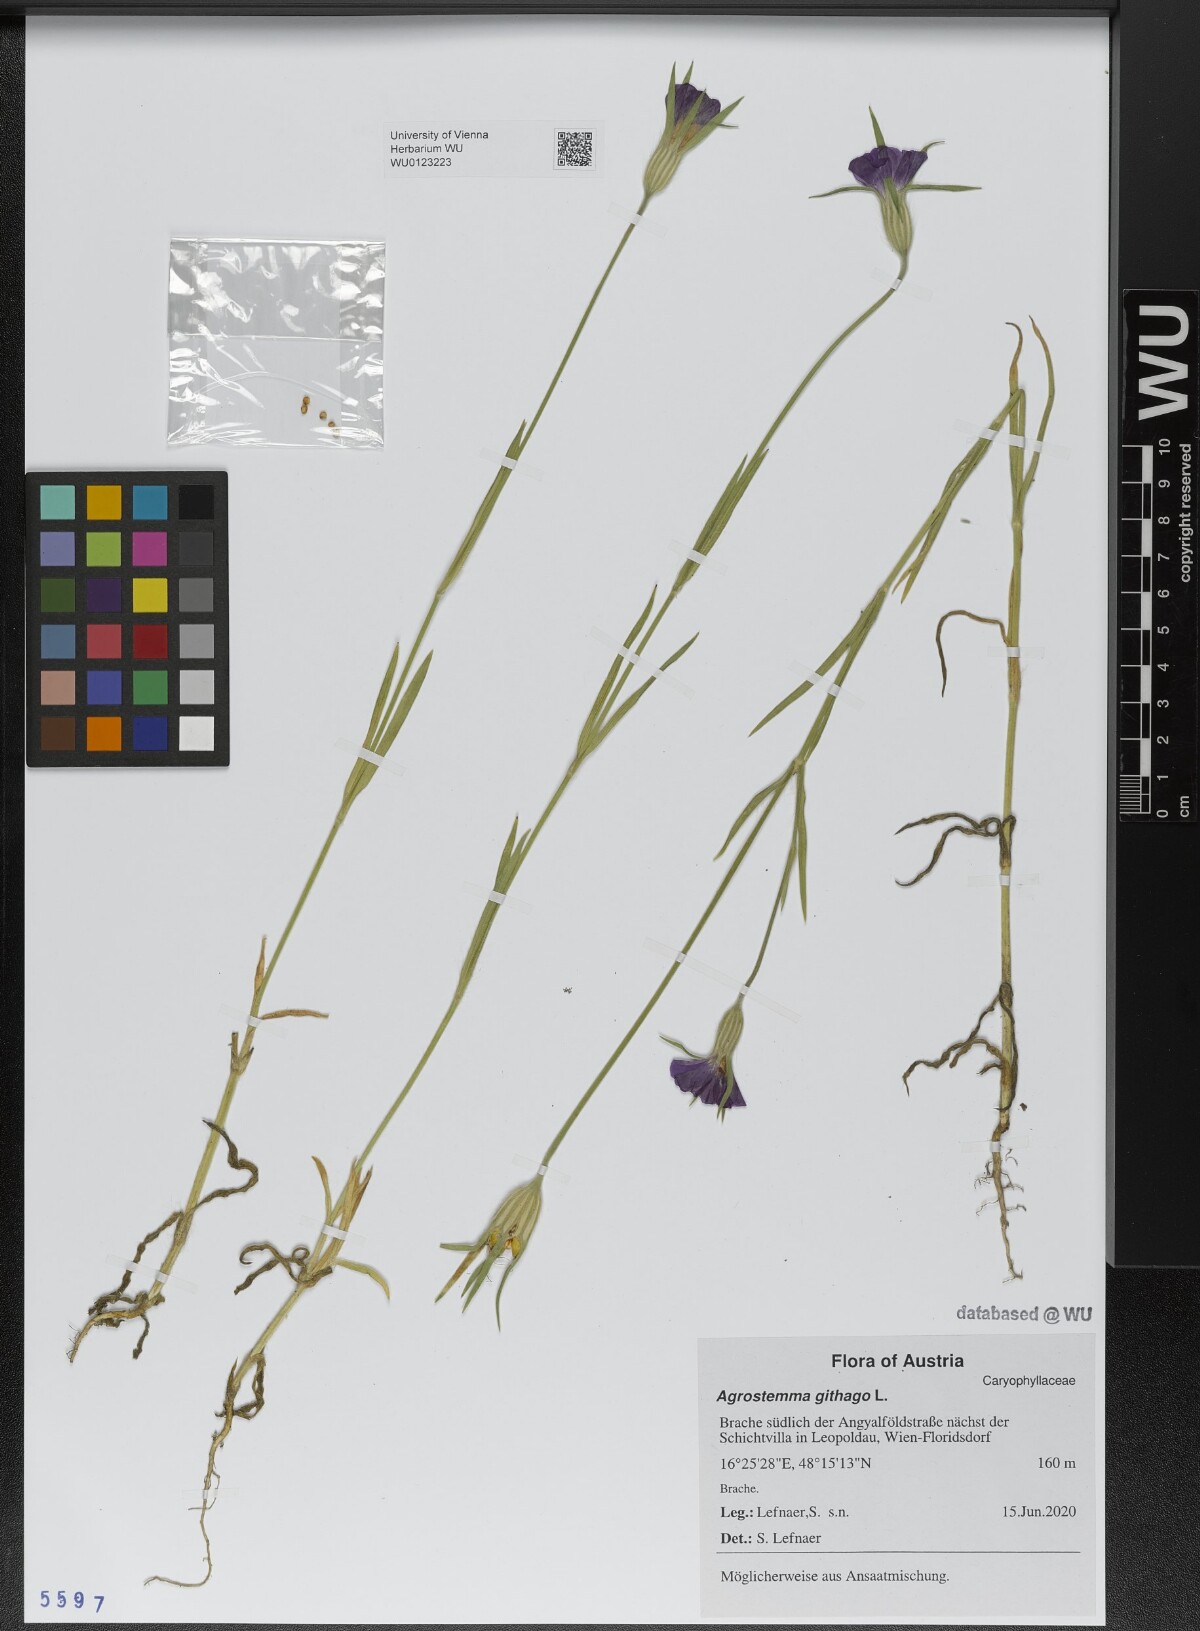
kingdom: Plantae
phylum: Tracheophyta
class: Magnoliopsida
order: Caryophyllales
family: Caryophyllaceae
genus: Agrostemma
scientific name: Agrostemma githago
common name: Common corncockle
